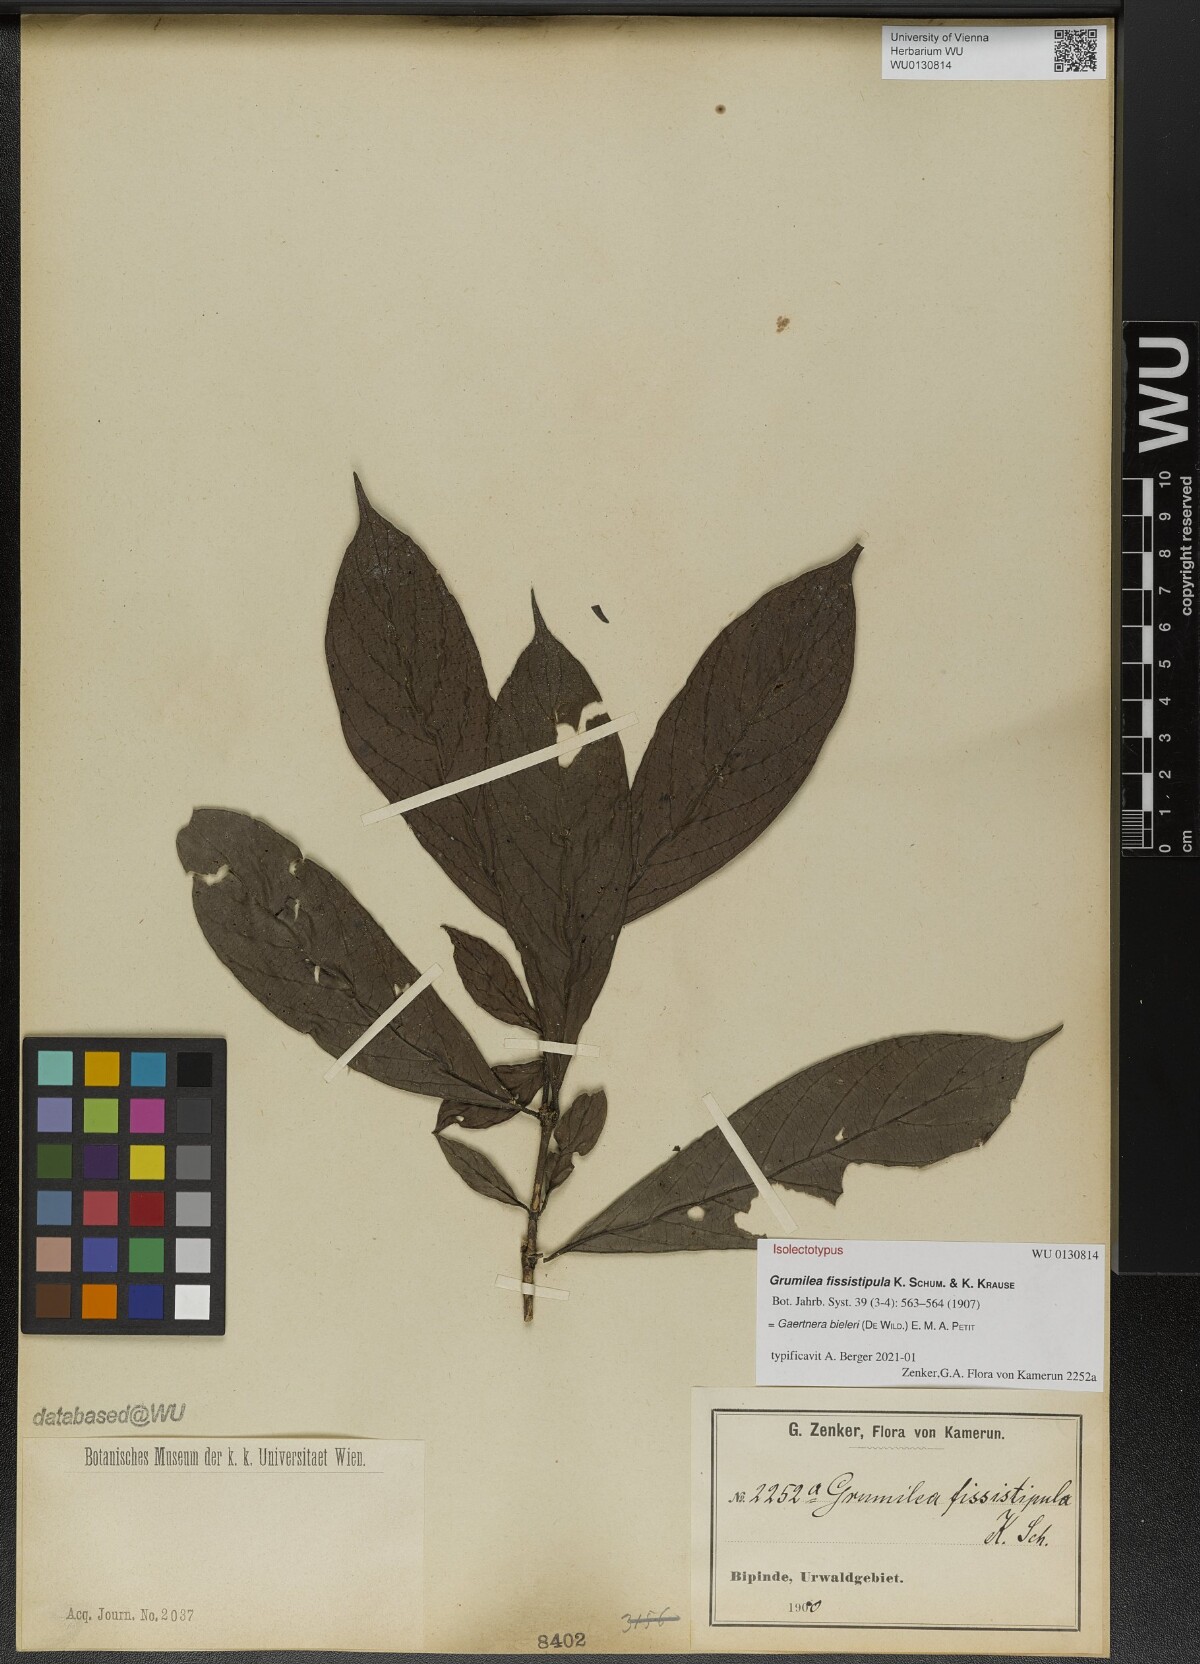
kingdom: Plantae
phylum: Tracheophyta
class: Magnoliopsida
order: Gentianales
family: Rubiaceae
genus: Gaertnera
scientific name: Gaertnera bieleri
